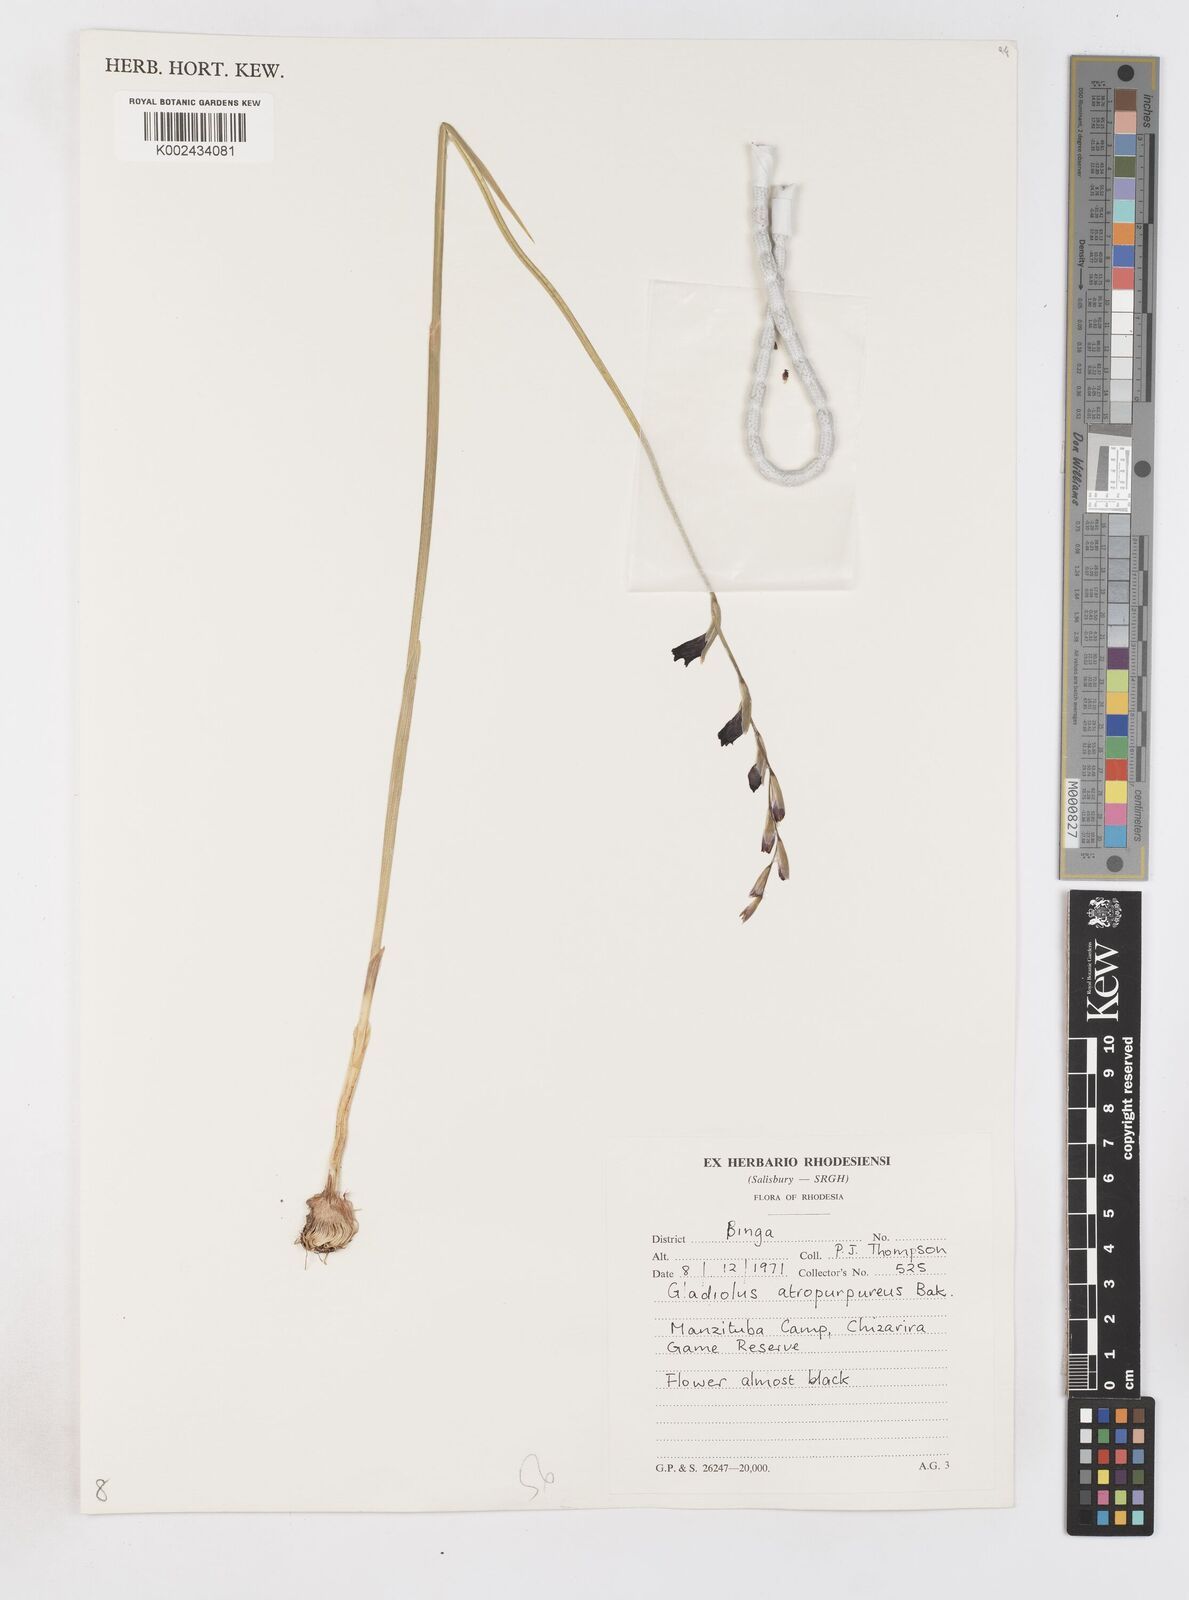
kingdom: Plantae
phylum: Tracheophyta
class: Liliopsida
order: Asparagales
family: Iridaceae
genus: Gladiolus
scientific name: Gladiolus atropurpureus
